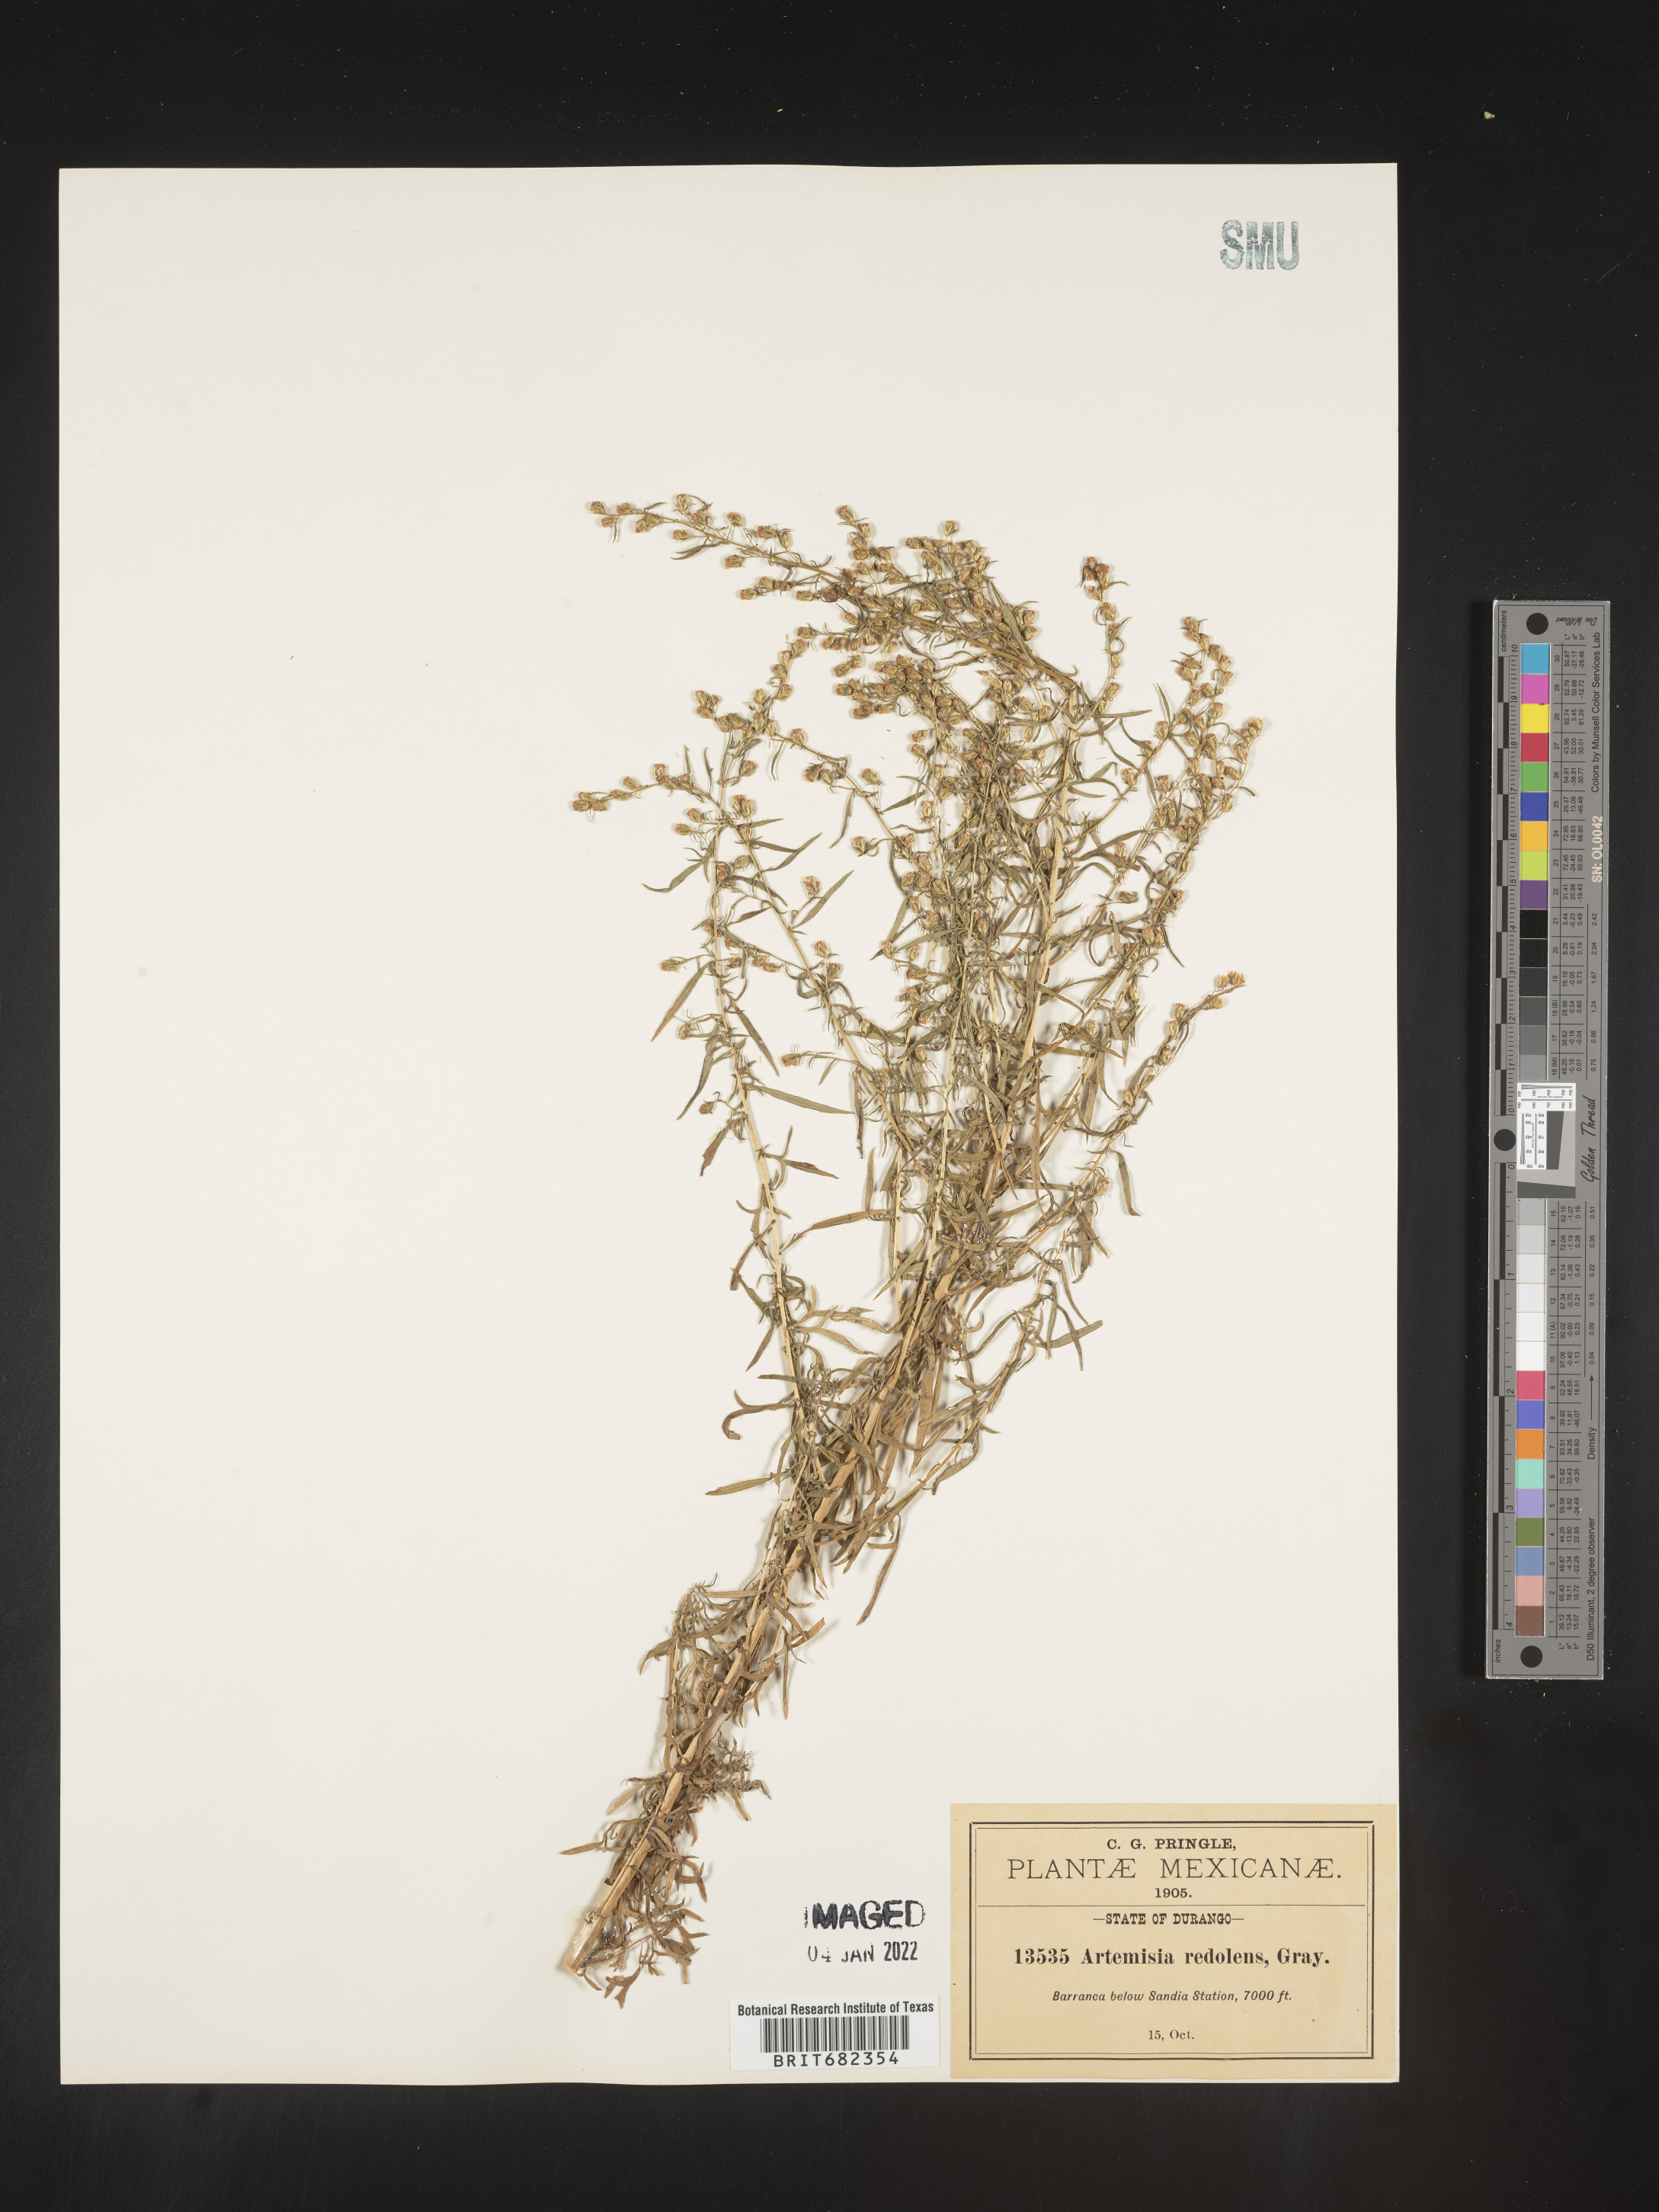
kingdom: Plantae
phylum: Tracheophyta
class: Magnoliopsida
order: Asterales
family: Asteraceae
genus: Artemisia
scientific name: Artemisia
